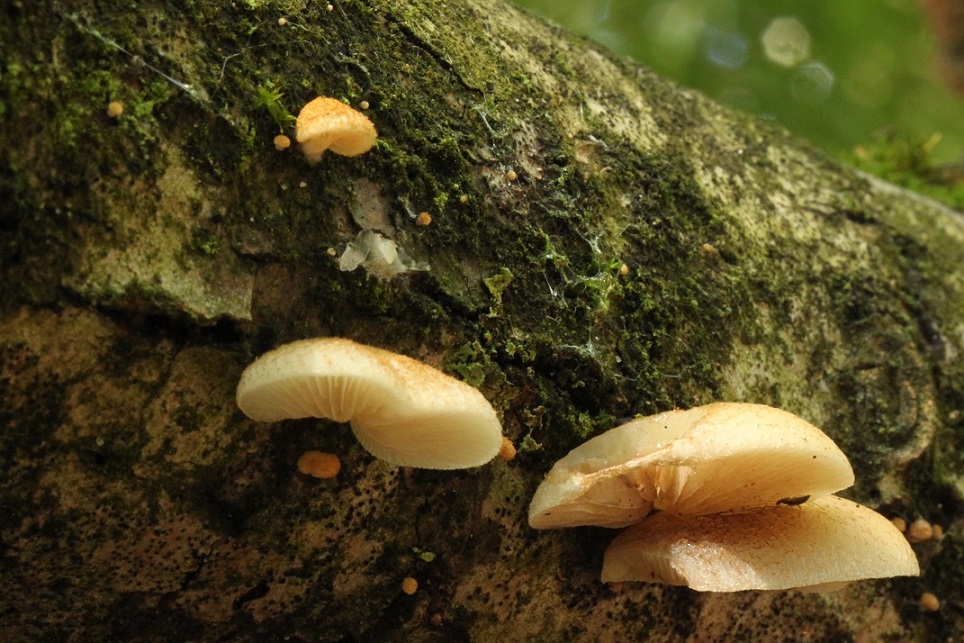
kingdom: Fungi
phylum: Basidiomycota
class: Agaricomycetes
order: Agaricales
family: Crepidotaceae
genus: Crepidotus
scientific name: Crepidotus calolepis
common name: småskællet muslingesvamp
